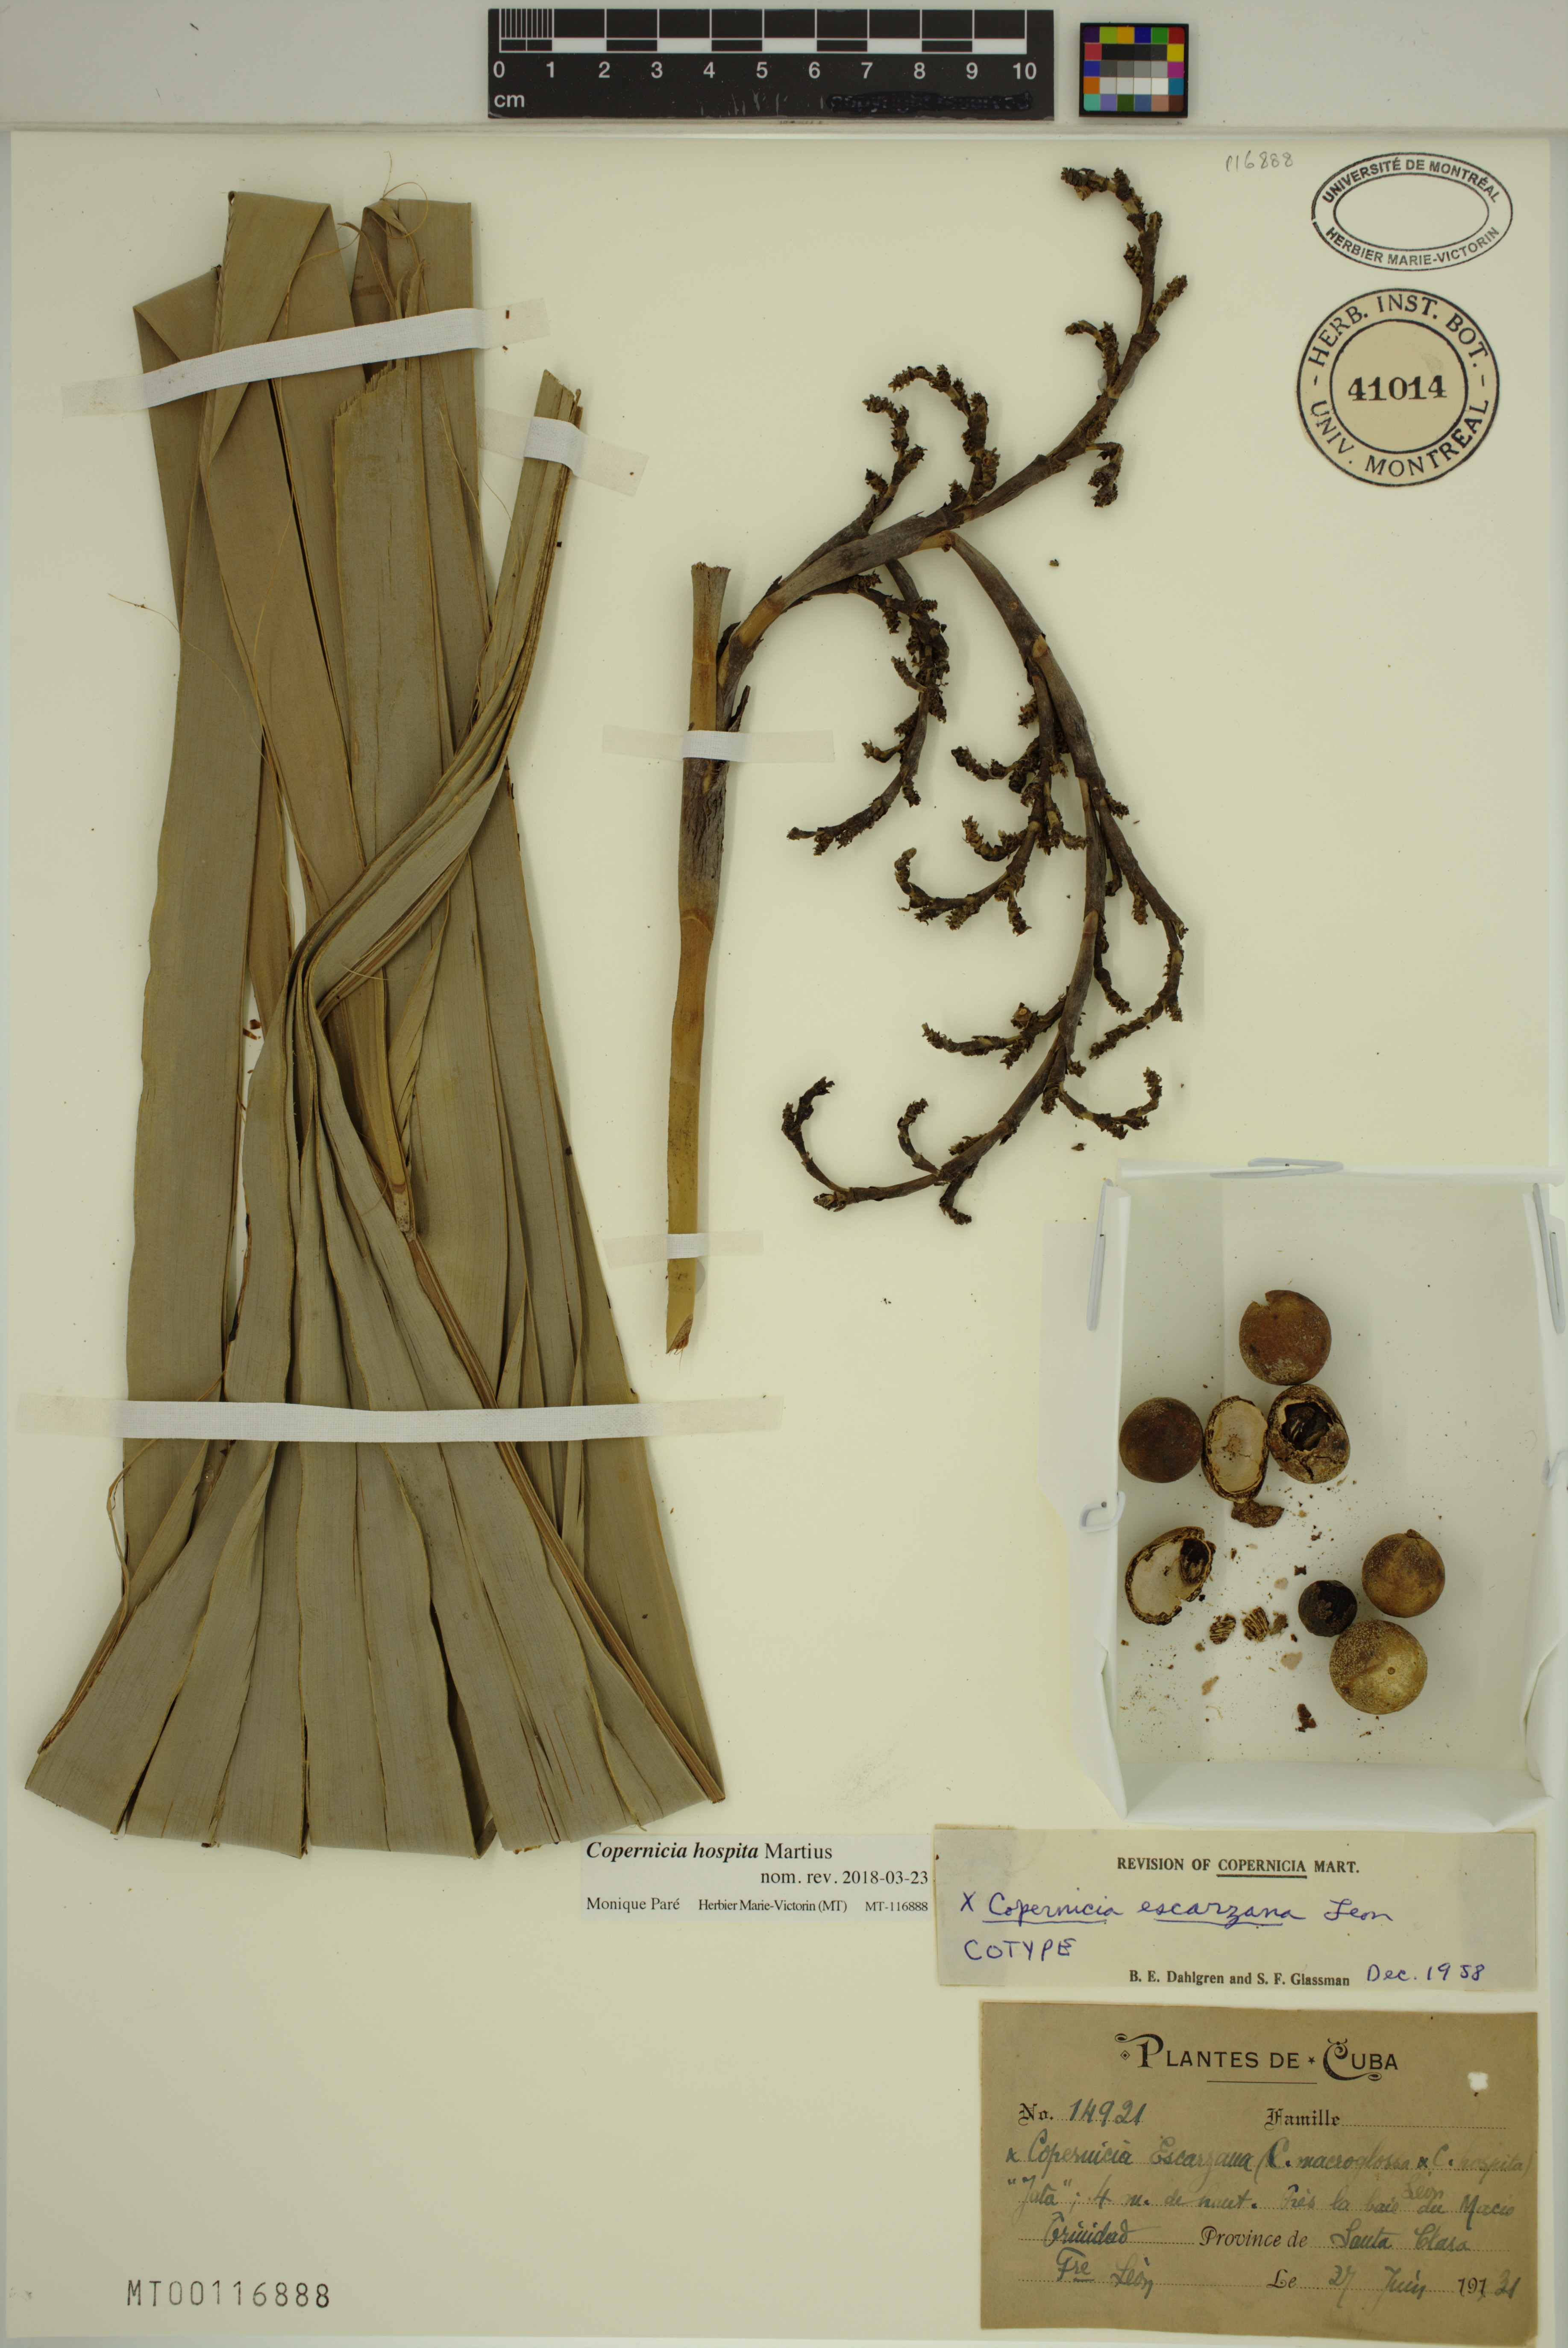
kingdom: Plantae
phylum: Tracheophyta
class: Liliopsida
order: Arecales
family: Arecaceae
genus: Copernicia
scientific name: Copernicia hospita
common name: Cubam palm
